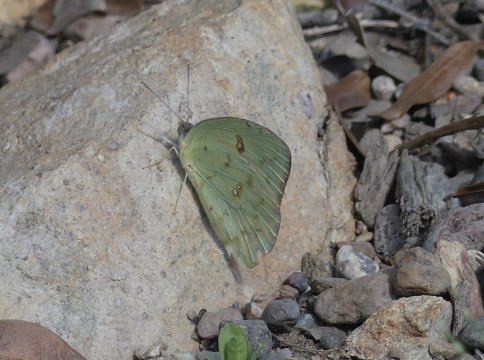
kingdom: Animalia
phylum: Arthropoda
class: Insecta
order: Lepidoptera
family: Pieridae
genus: Phoebis
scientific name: Phoebis sennae
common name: Cloudless Sulphur
